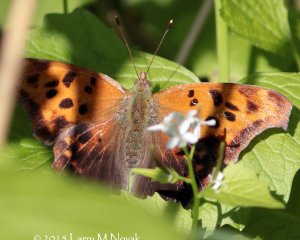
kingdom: Animalia
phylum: Arthropoda
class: Insecta
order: Lepidoptera
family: Nymphalidae
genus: Polygonia
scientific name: Polygonia interrogationis
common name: Question Mark
